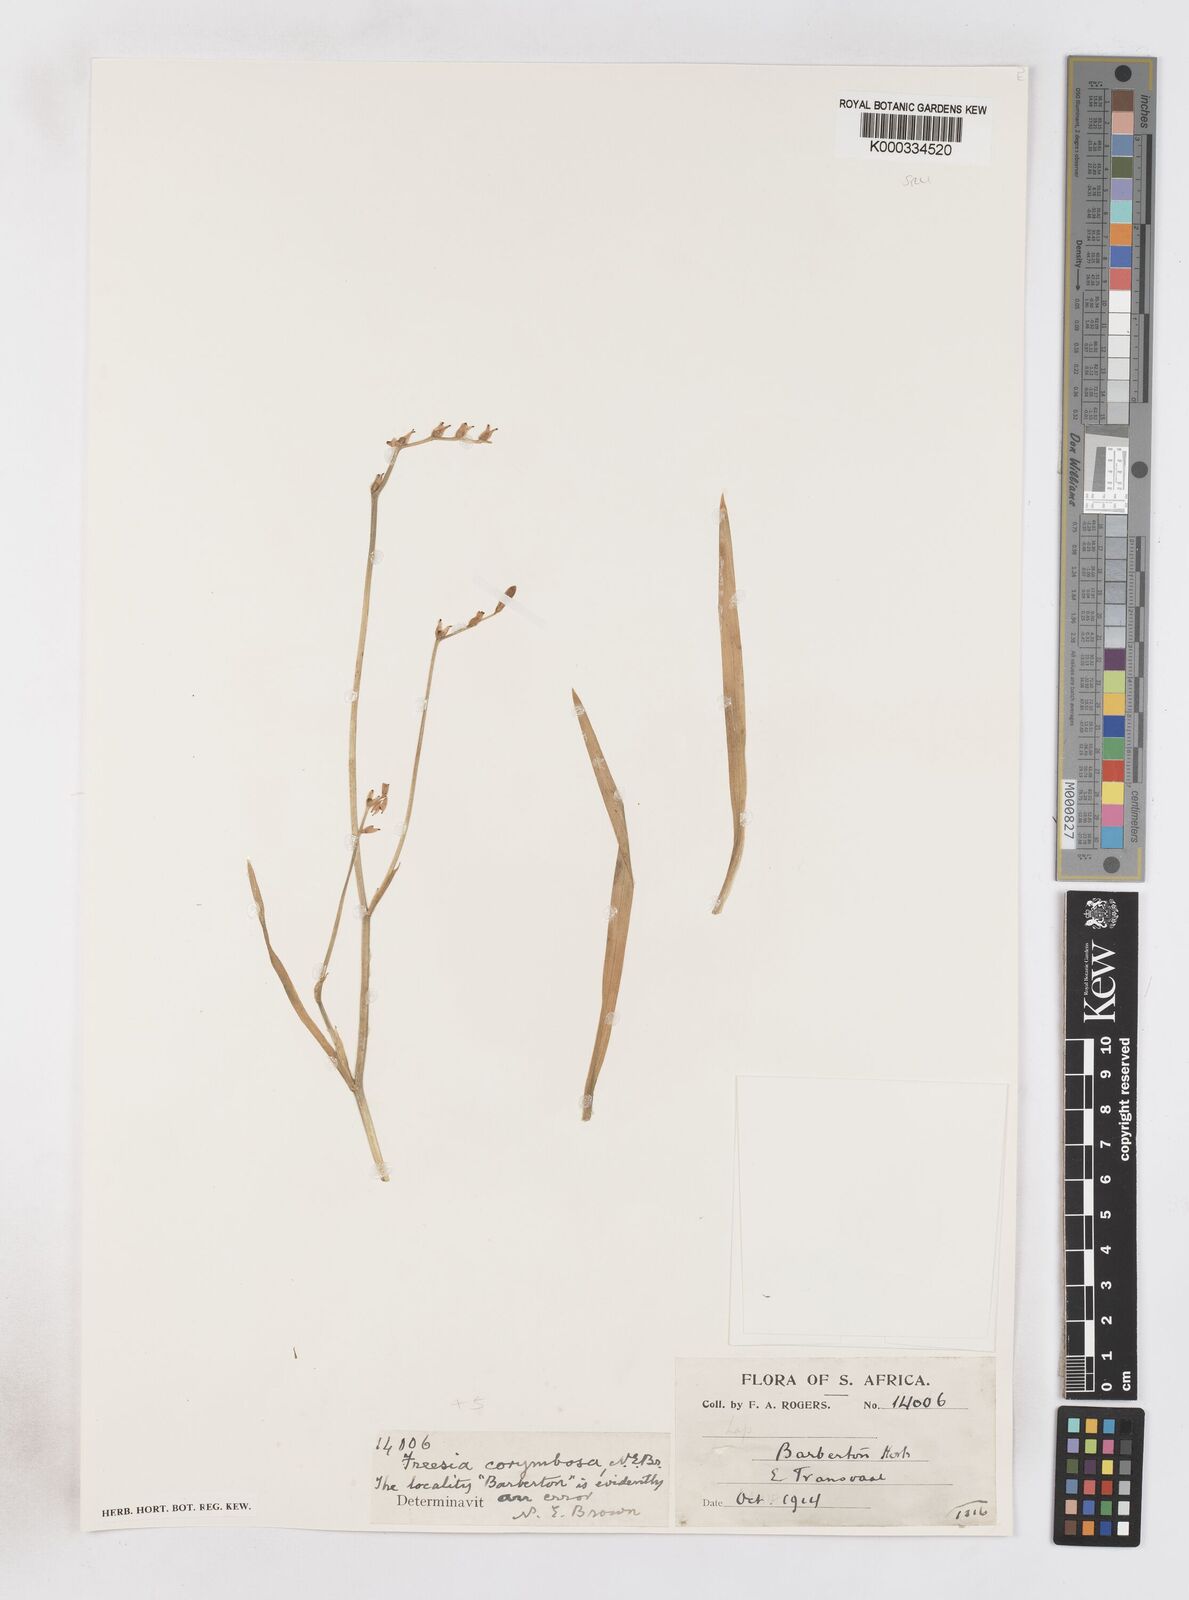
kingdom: Plantae
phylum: Tracheophyta
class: Liliopsida
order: Asparagales
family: Iridaceae
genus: Freesia
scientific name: Freesia corymbosa
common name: Common freesia
